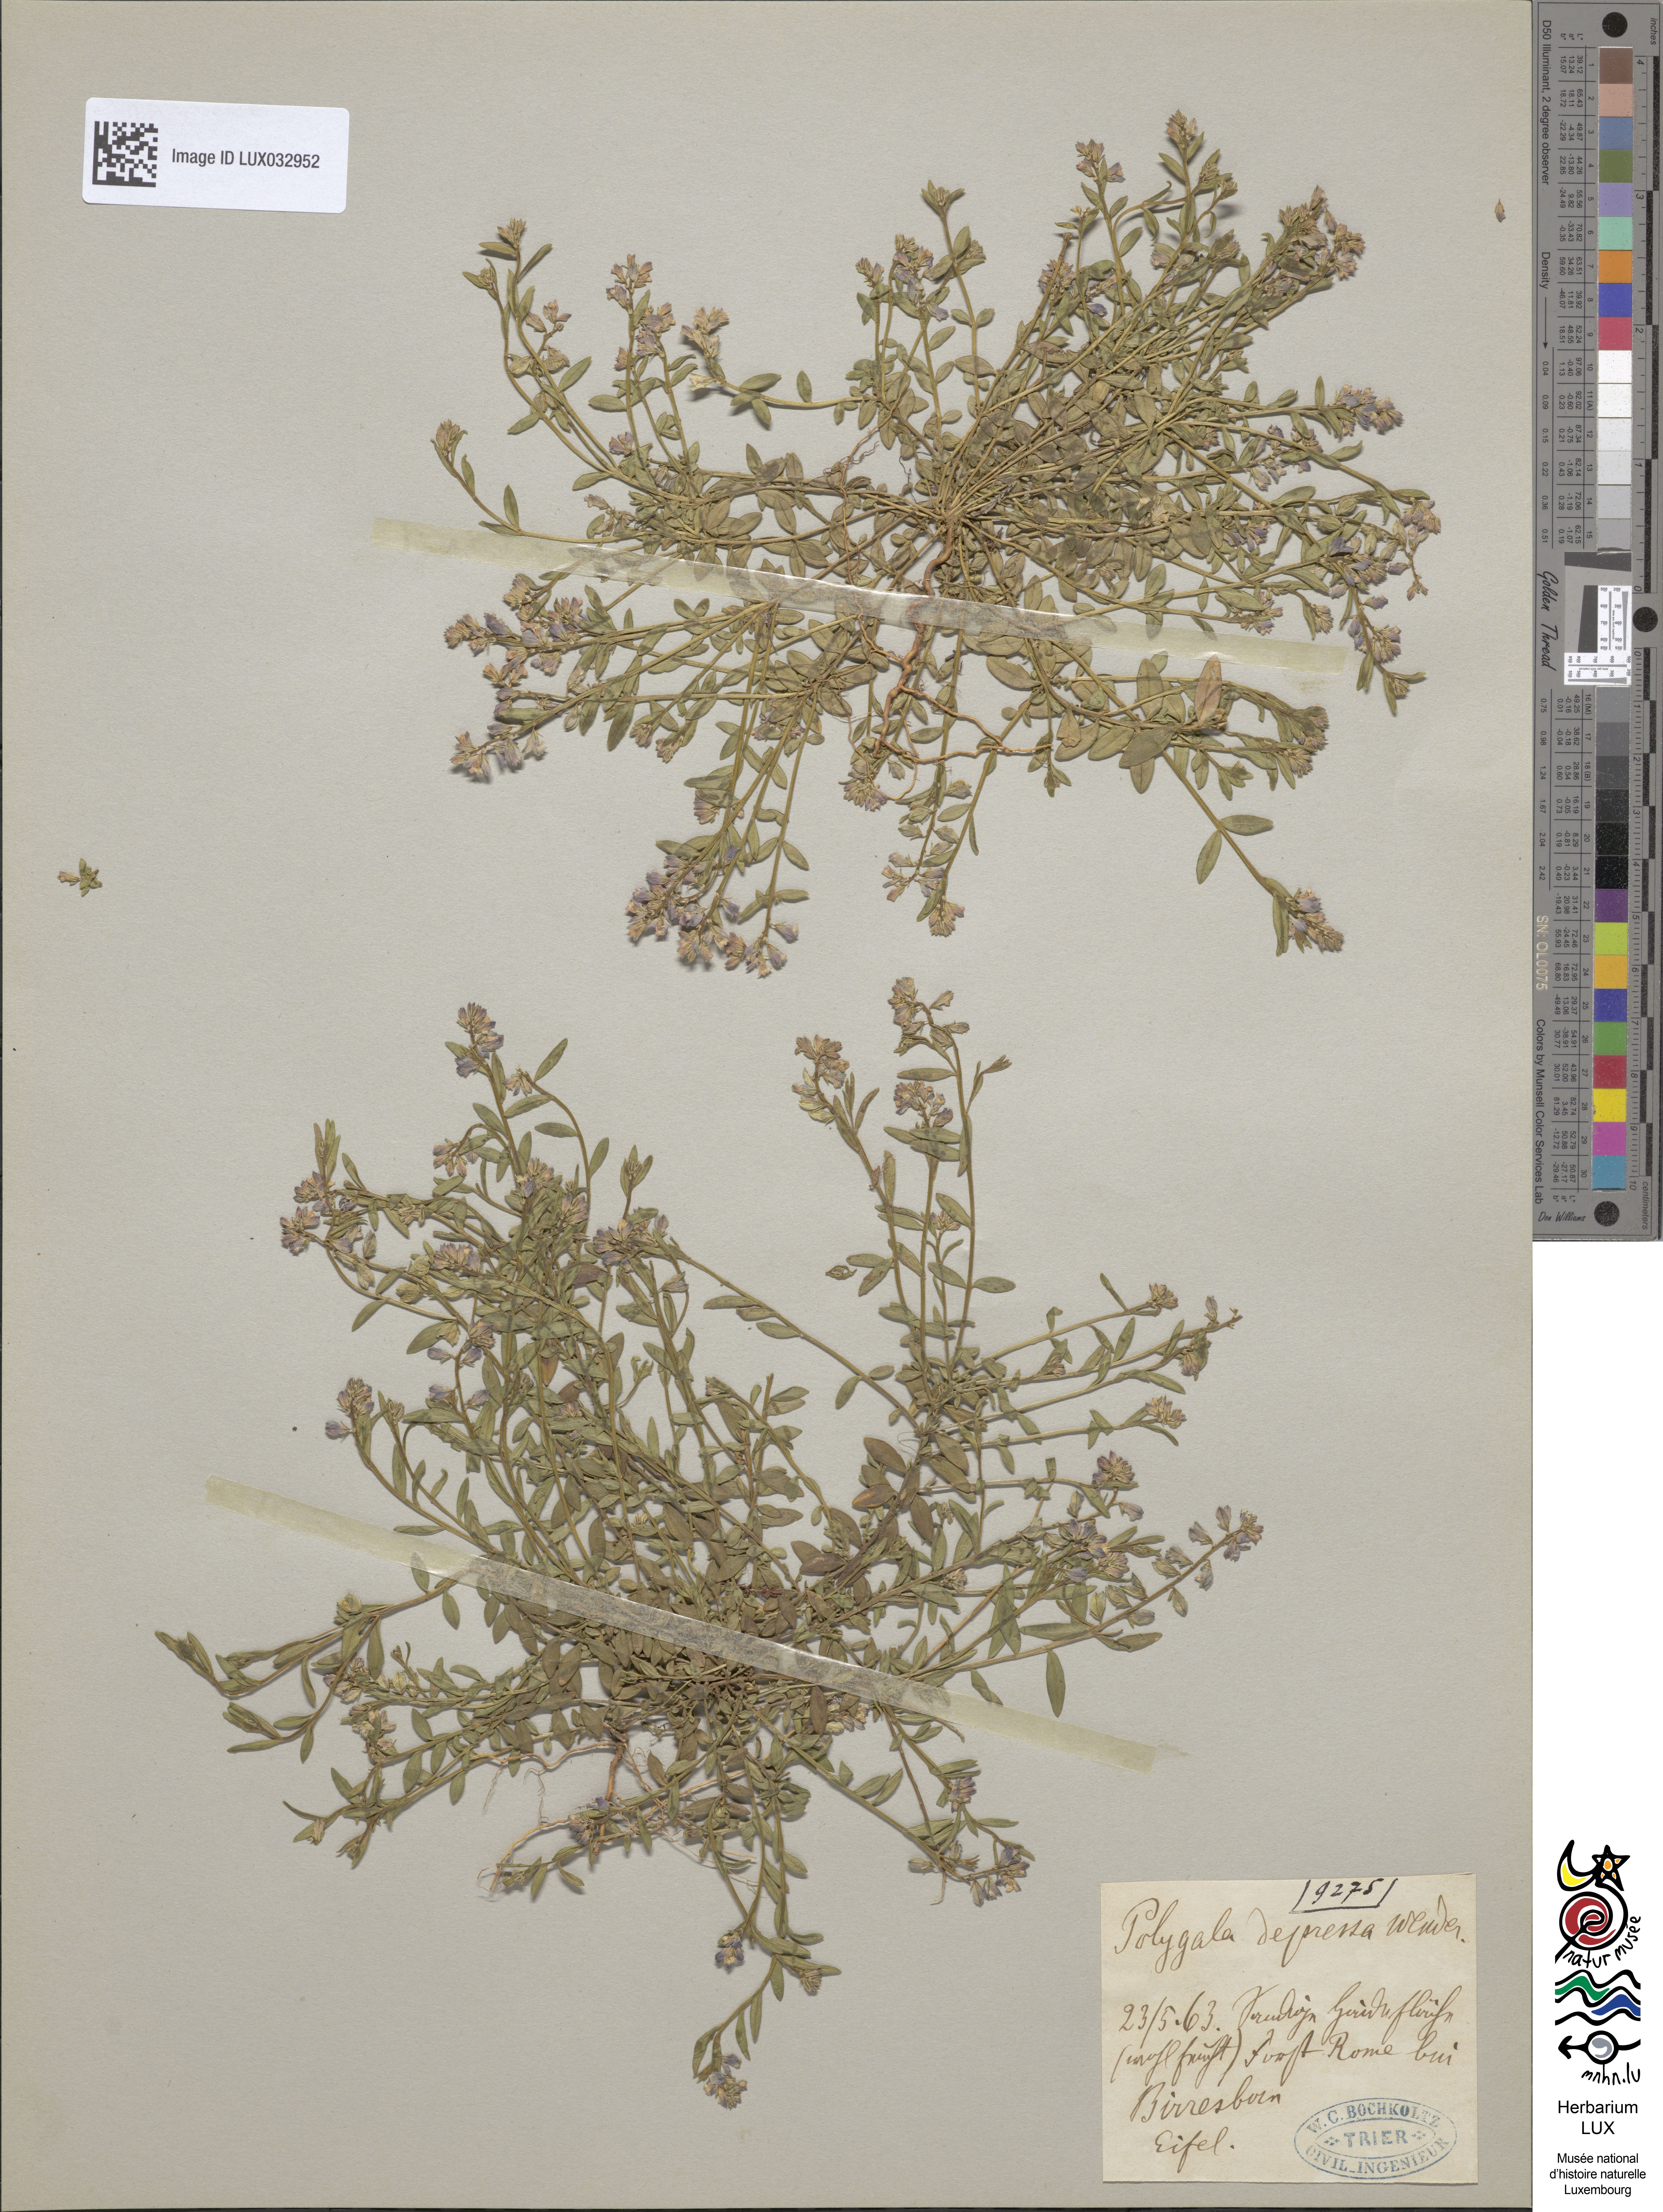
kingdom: Plantae
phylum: Tracheophyta
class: Magnoliopsida
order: Fabales
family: Polygalaceae
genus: Polygala
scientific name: Polygala serpyllifolia
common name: Heath milkwort
